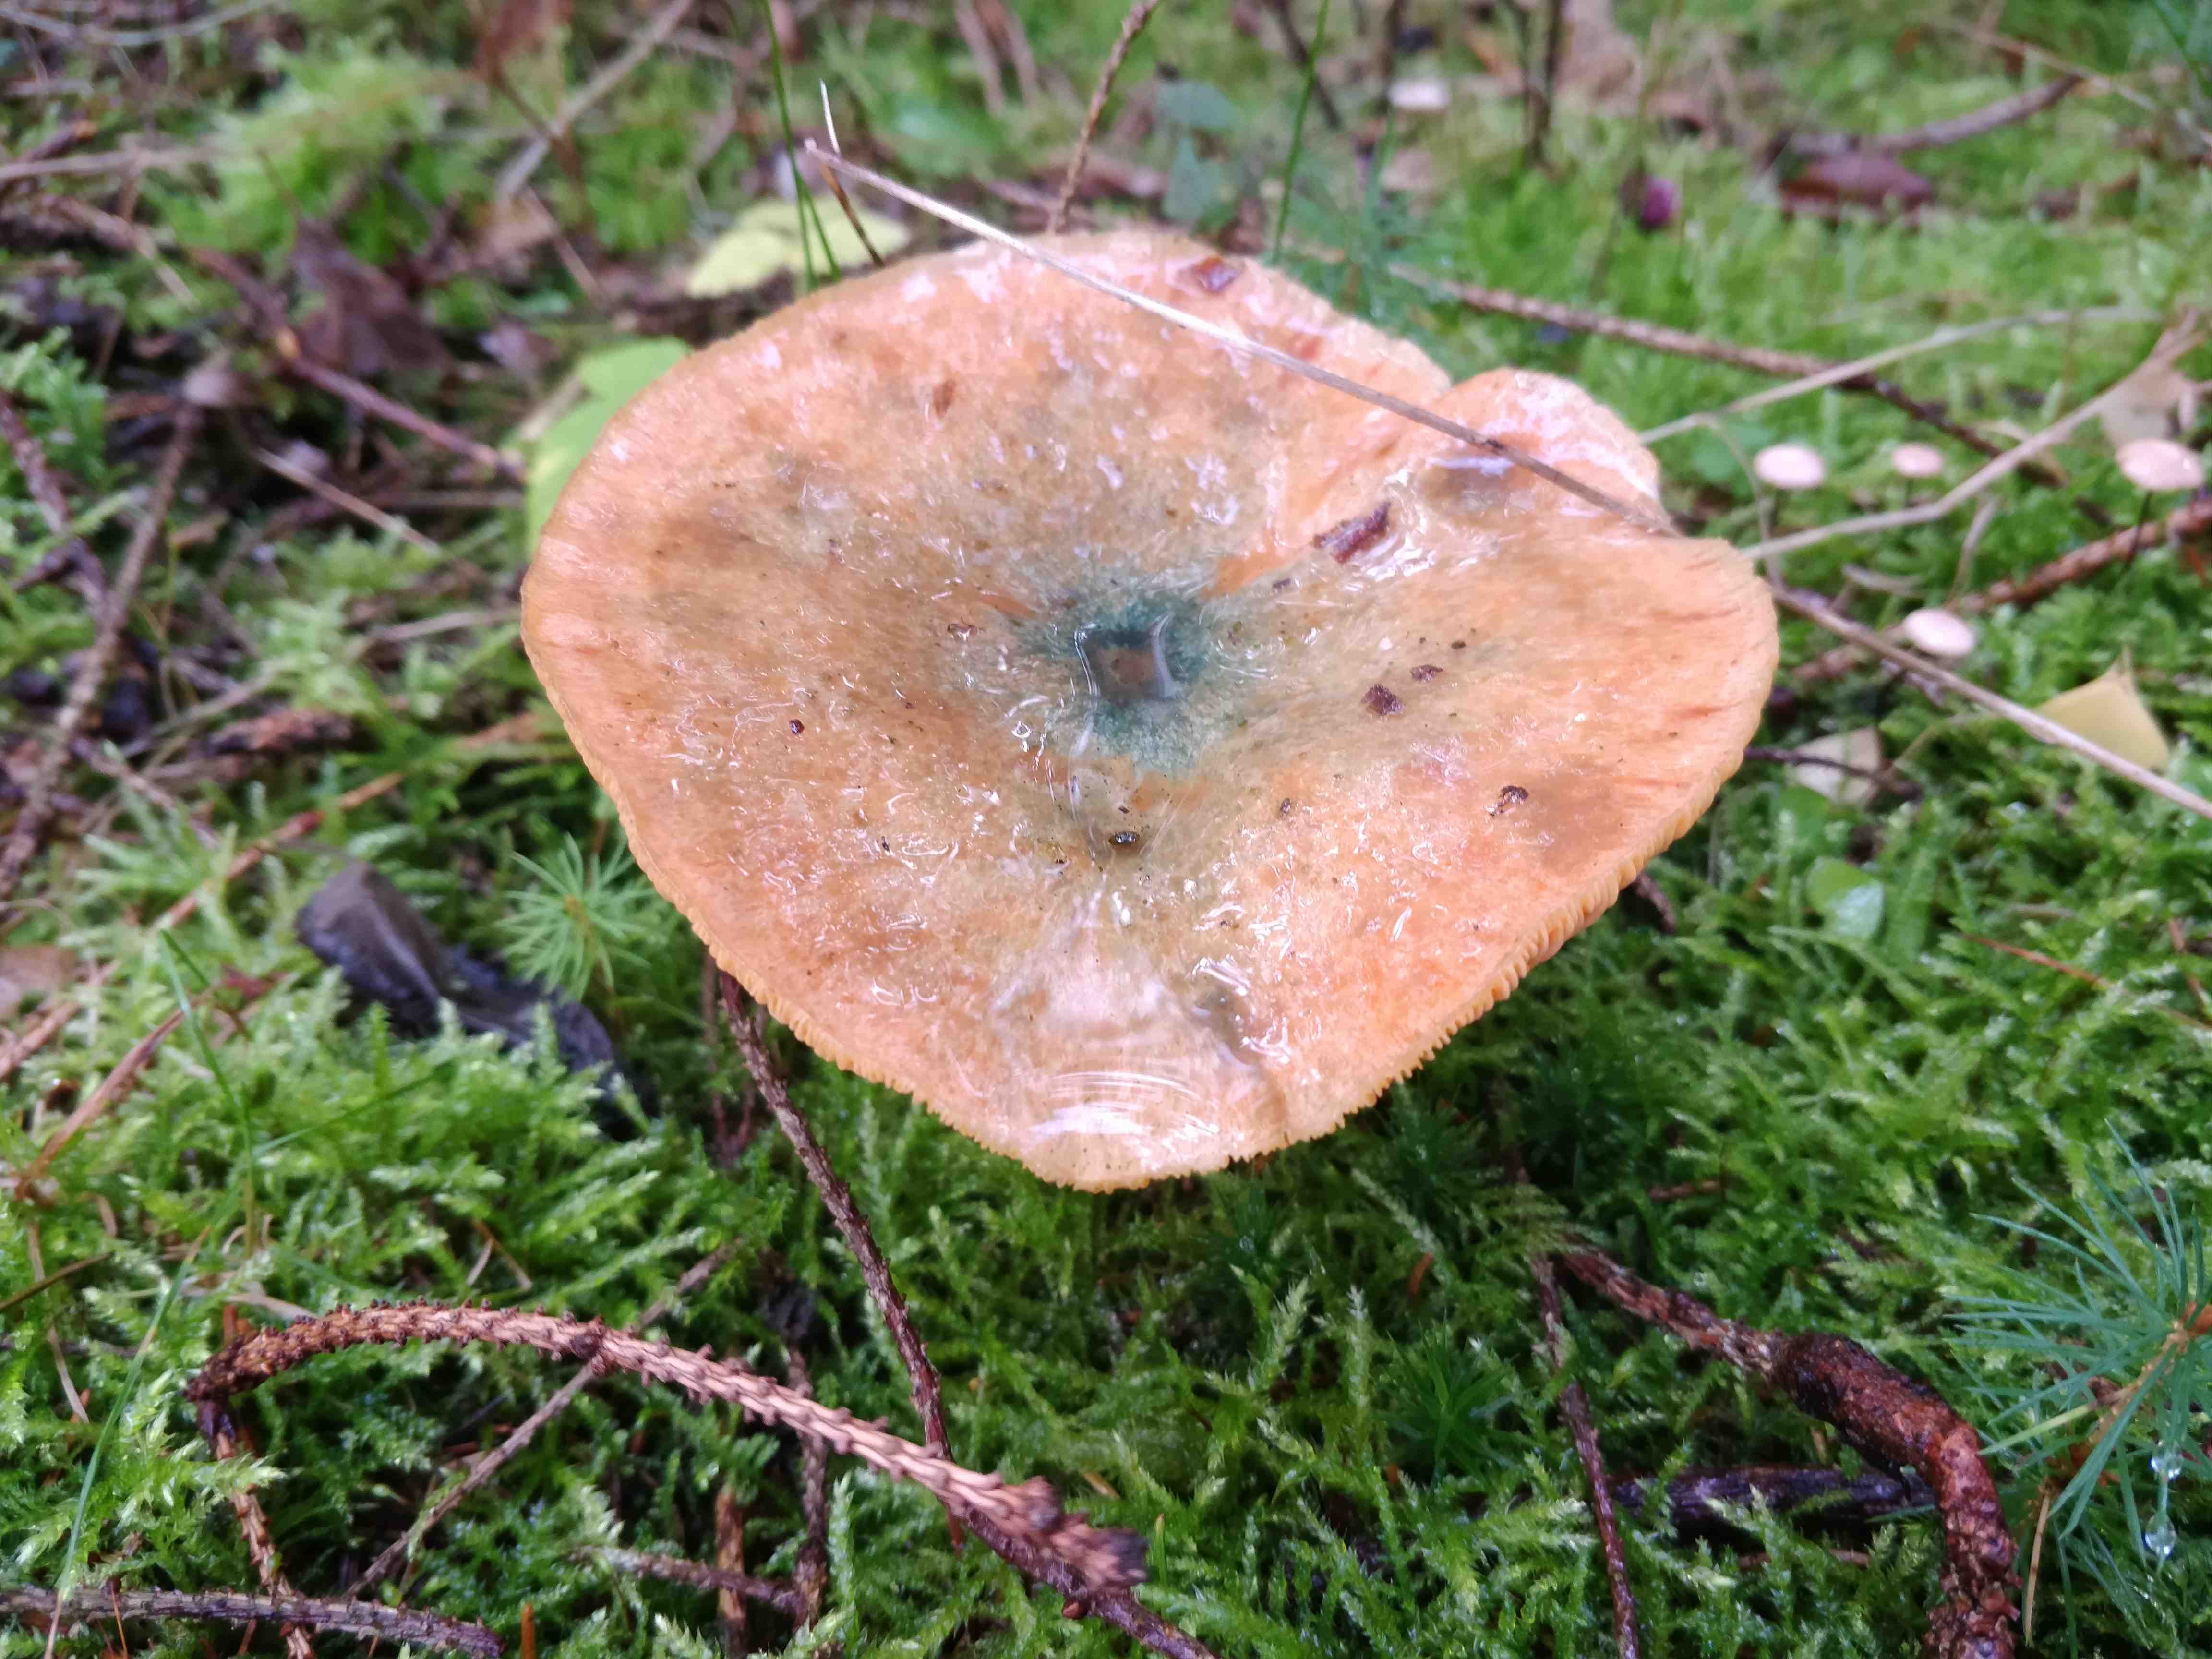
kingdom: Fungi
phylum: Basidiomycota
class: Agaricomycetes
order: Russulales
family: Russulaceae
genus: Lactarius
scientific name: Lactarius deterrimus
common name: gran-mælkehat
